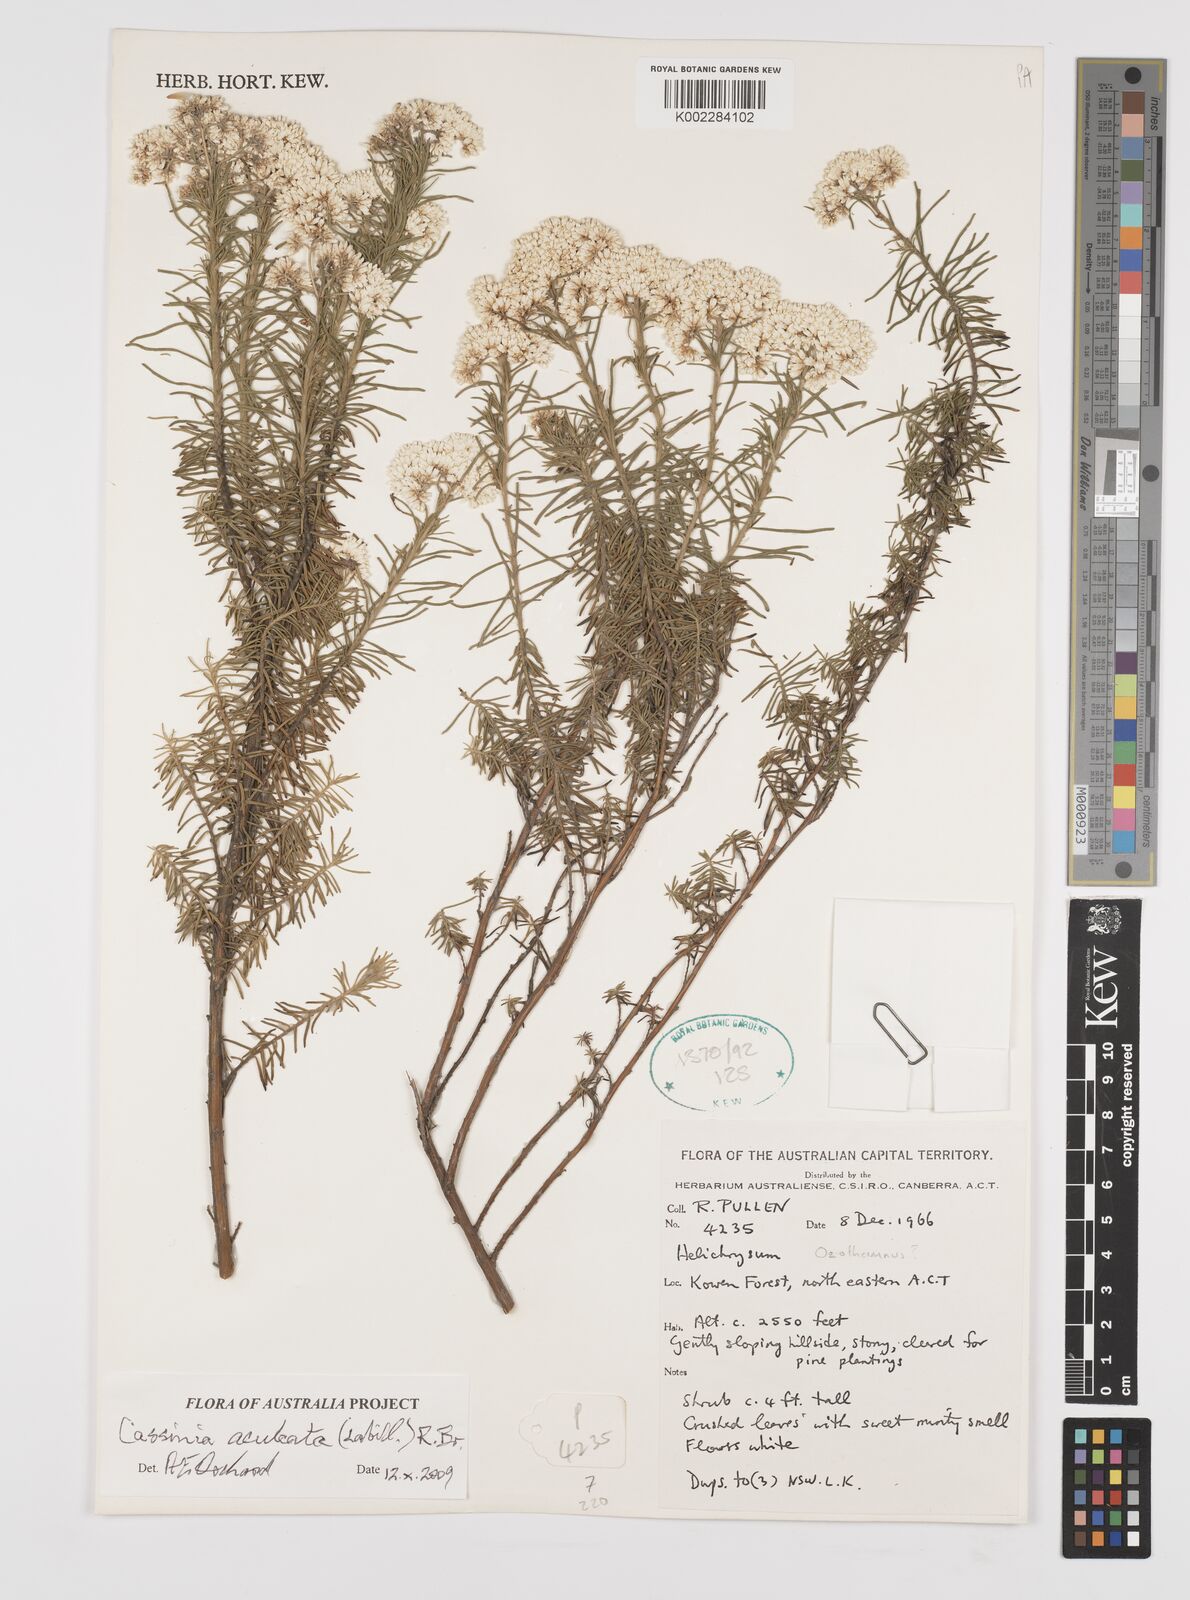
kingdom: Plantae
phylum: Tracheophyta
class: Magnoliopsida
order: Asterales
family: Asteraceae
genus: Cassinia
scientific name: Cassinia aculeata
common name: Australian tauhinu
